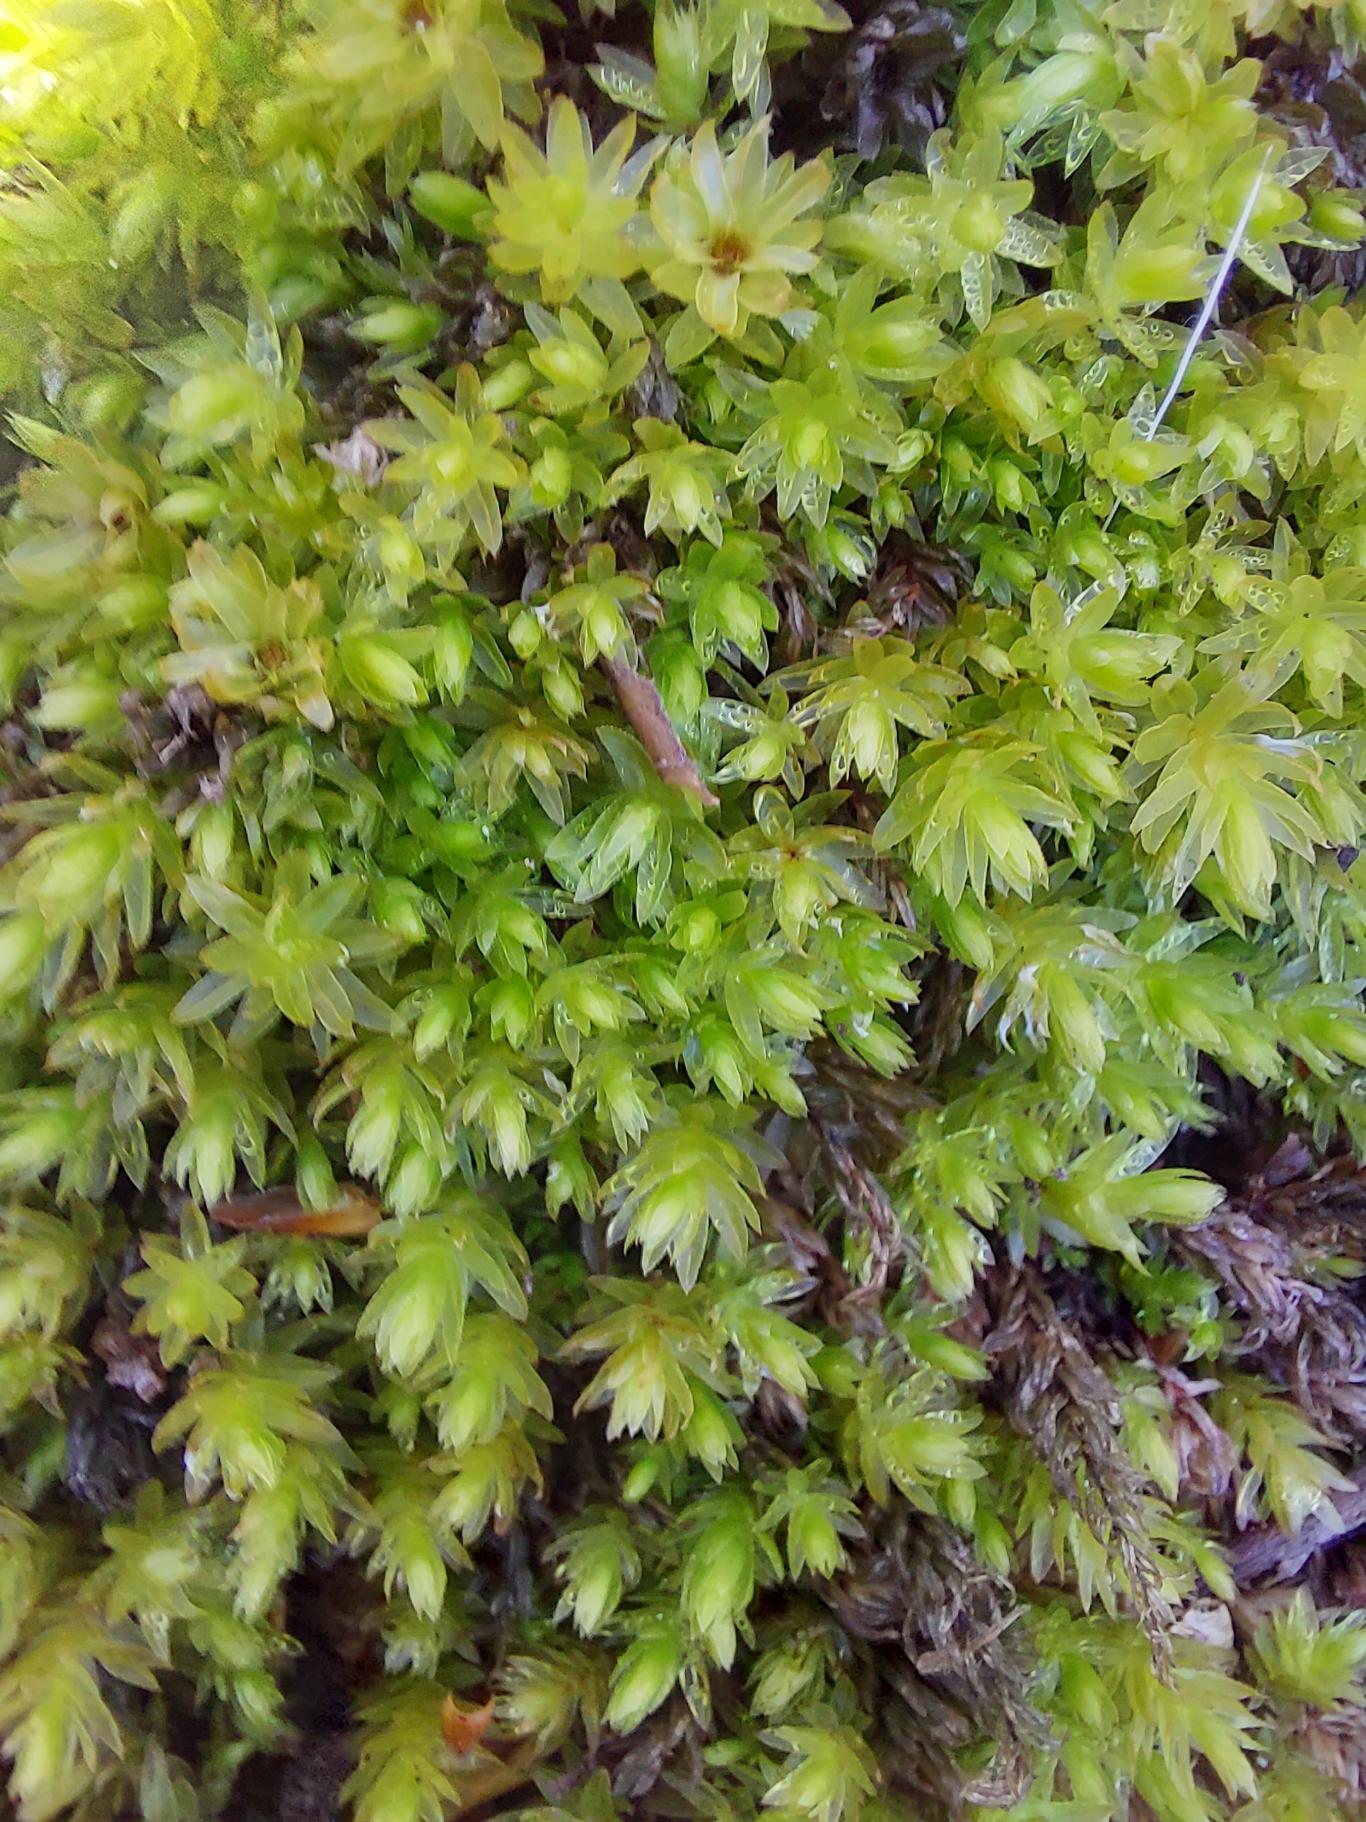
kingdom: Plantae
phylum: Bryophyta
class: Bryopsida
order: Bryales
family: Mniaceae
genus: Mnium
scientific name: Mnium hornum
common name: Brunfiltet stjernemos
